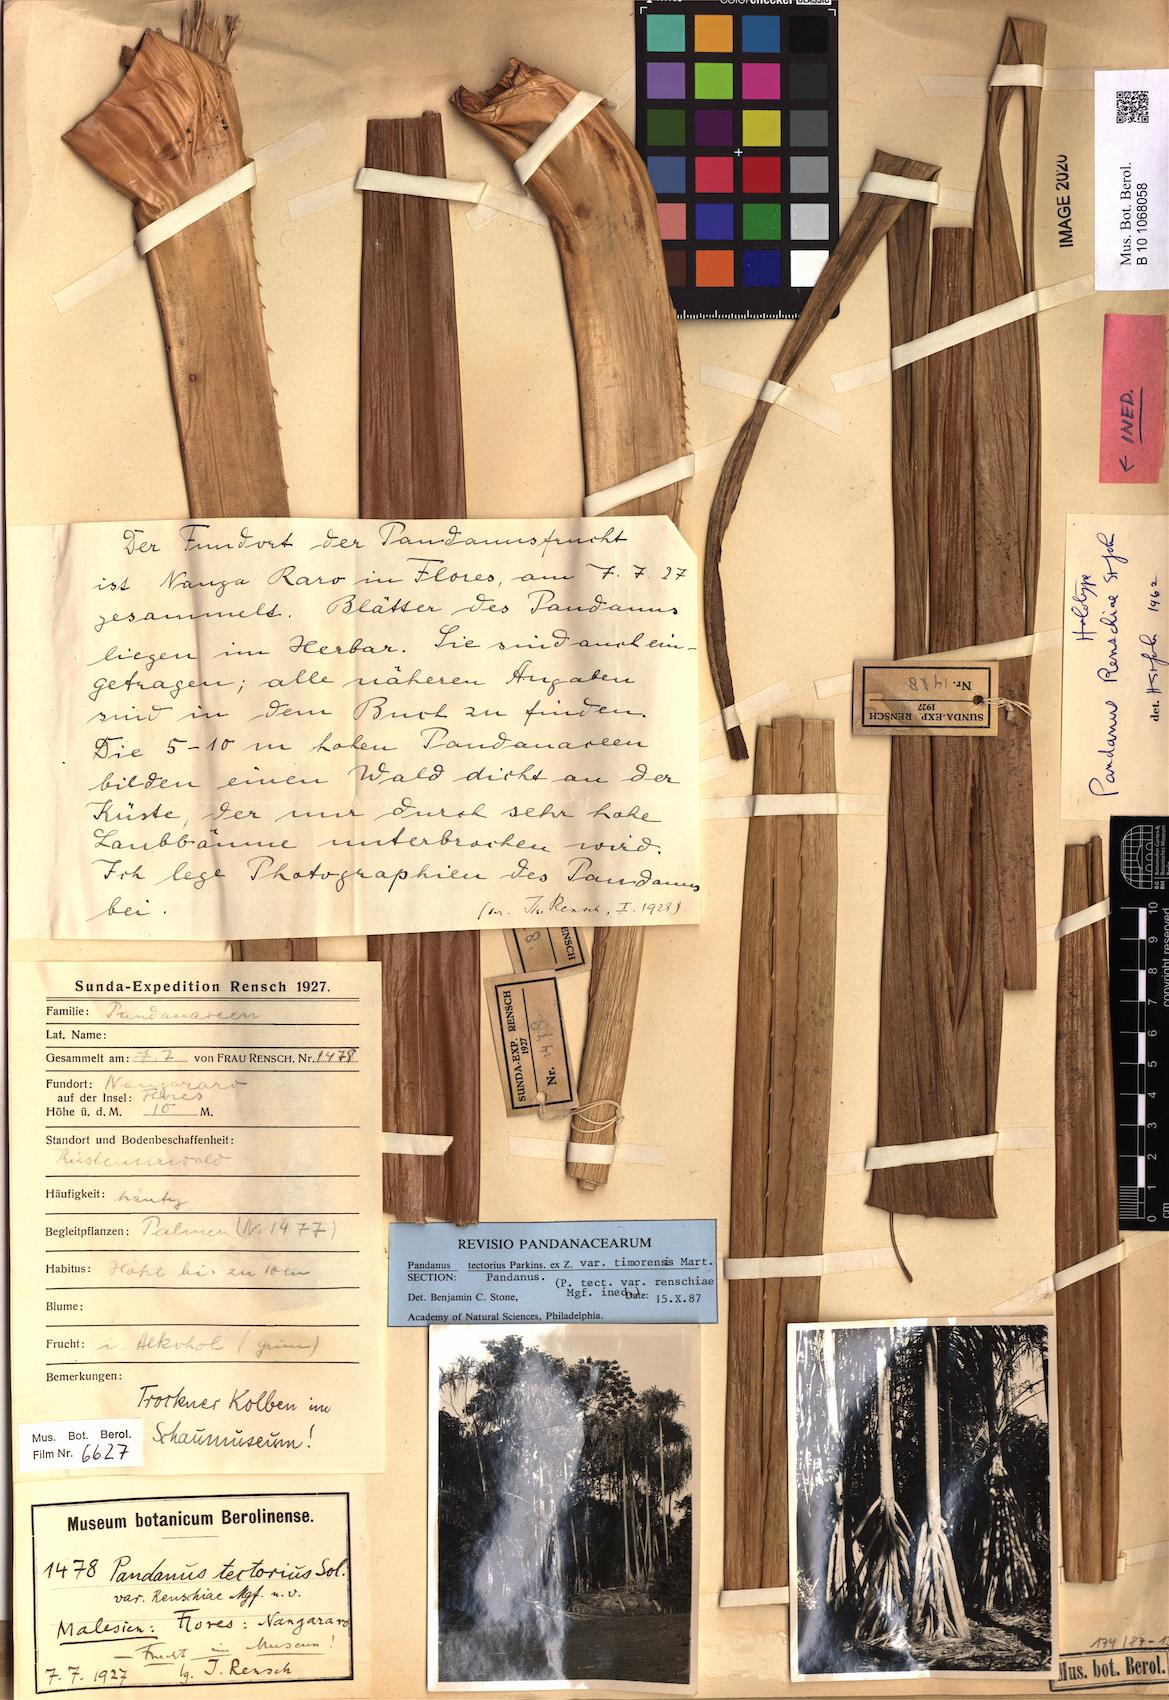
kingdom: Plantae
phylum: Tracheophyta
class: Liliopsida
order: Pandanales
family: Pandanaceae
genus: Pandanus
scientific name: Pandanus tectorius
